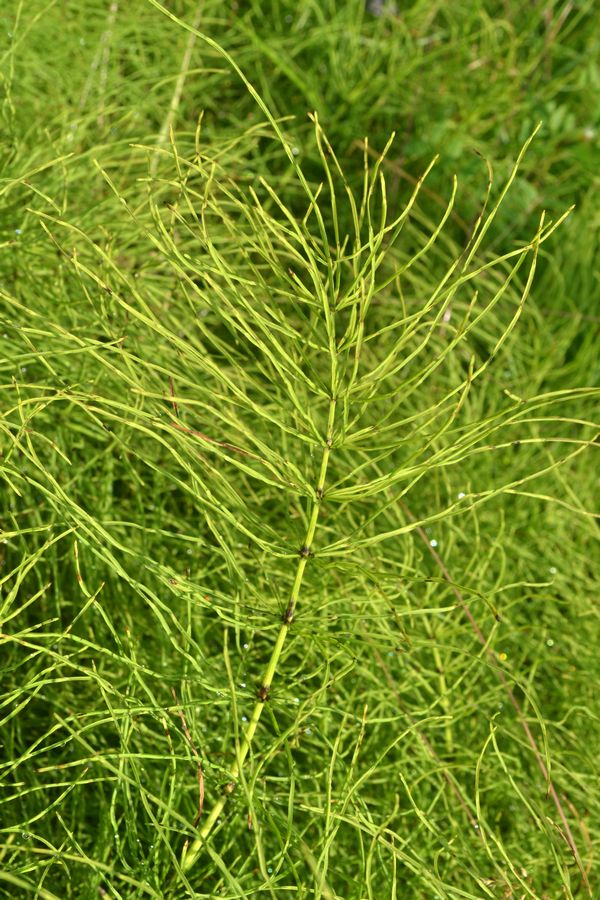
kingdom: Plantae
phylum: Tracheophyta
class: Polypodiopsida
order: Equisetales
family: Equisetaceae
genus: Equisetum
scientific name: Equisetum arvense
